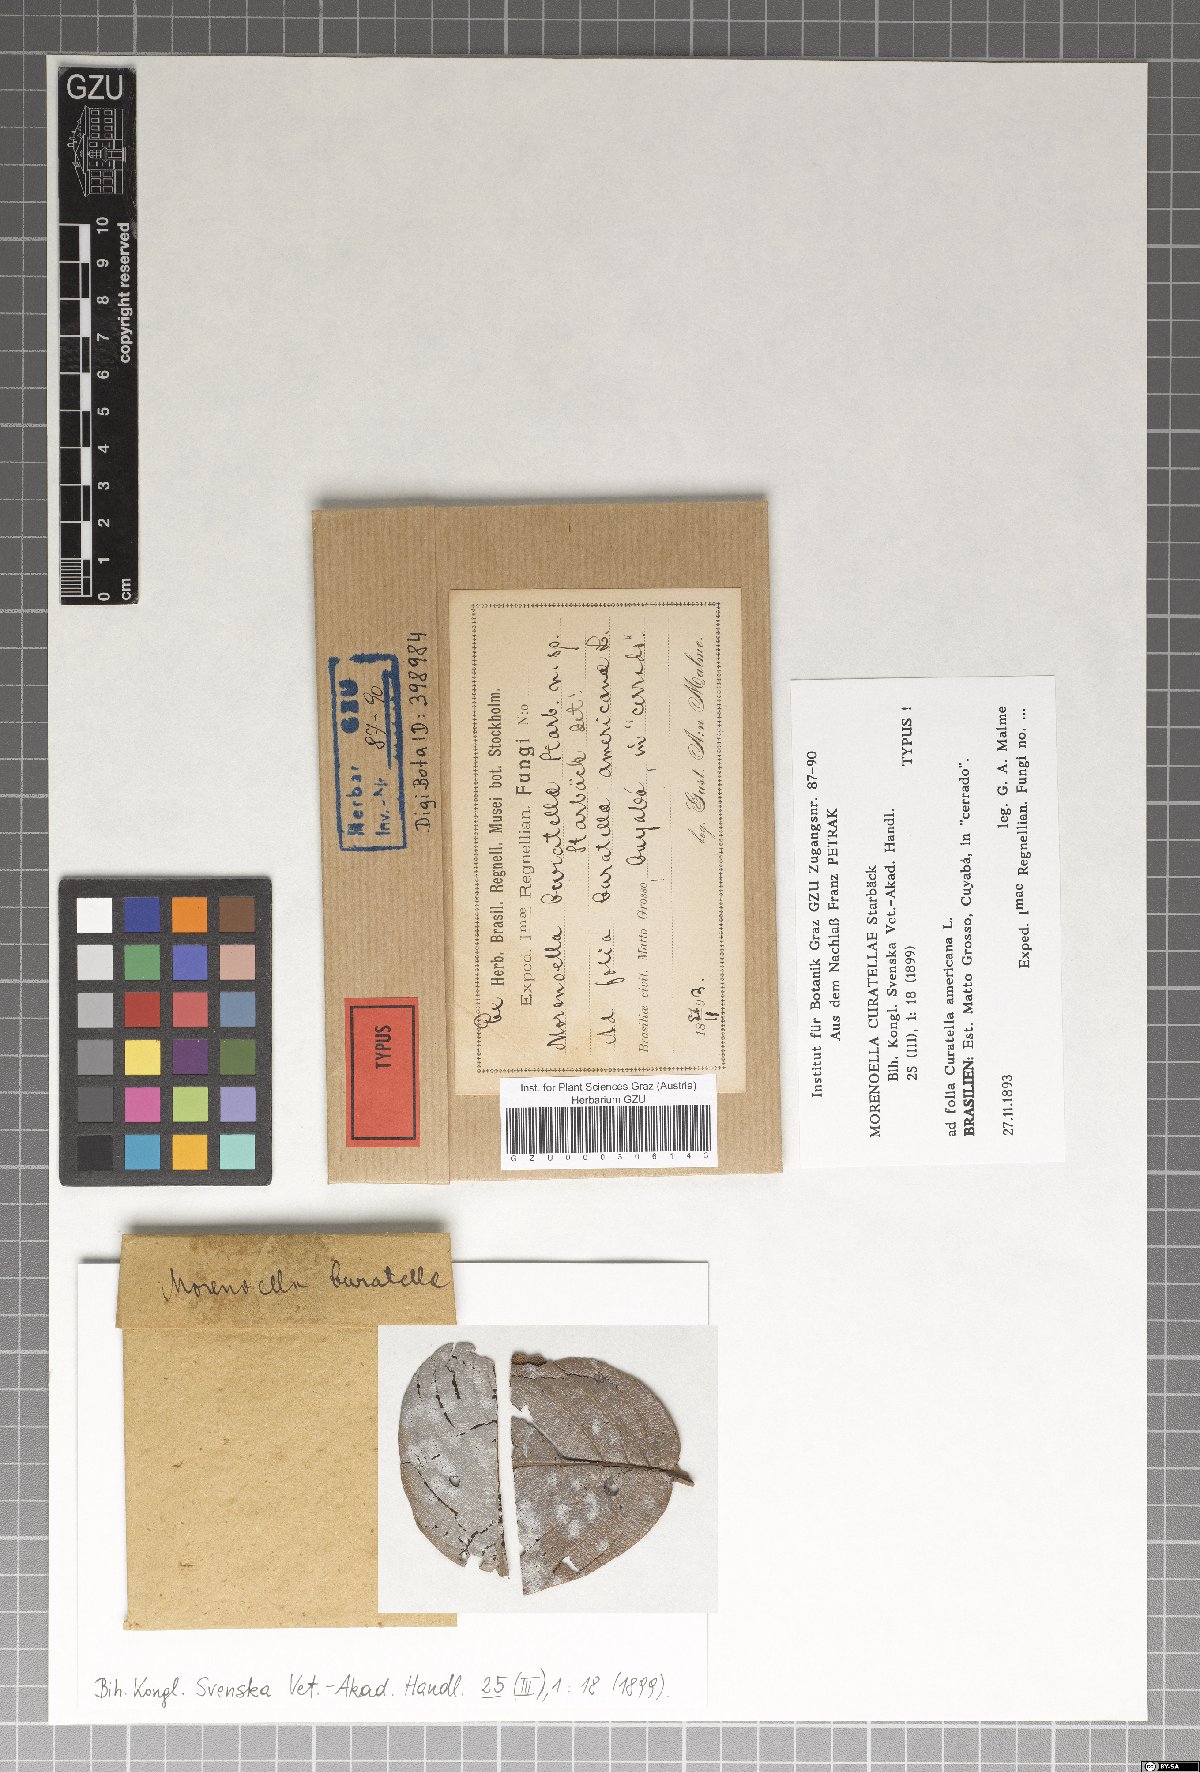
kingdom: Fungi
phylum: Ascomycota
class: Dothideomycetes
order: Asterinales
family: Asterinaceae
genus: Morenoella
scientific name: Morenoella
